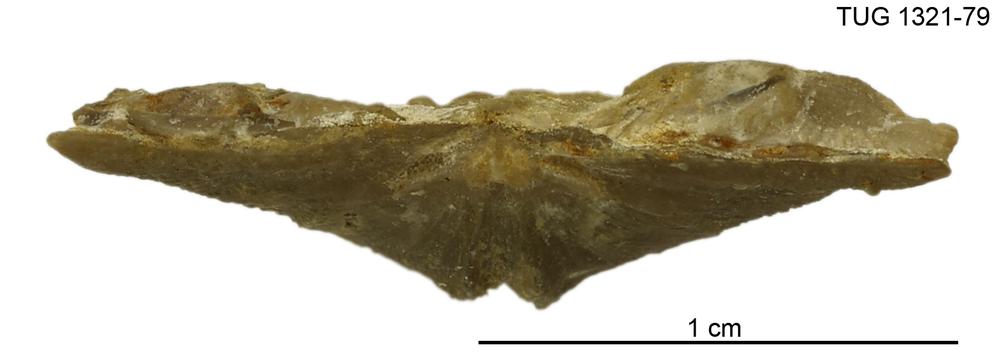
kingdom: Animalia
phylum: Brachiopoda
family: Sowerbyellidae
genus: Sowerbyella
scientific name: Sowerbyella oepiki
